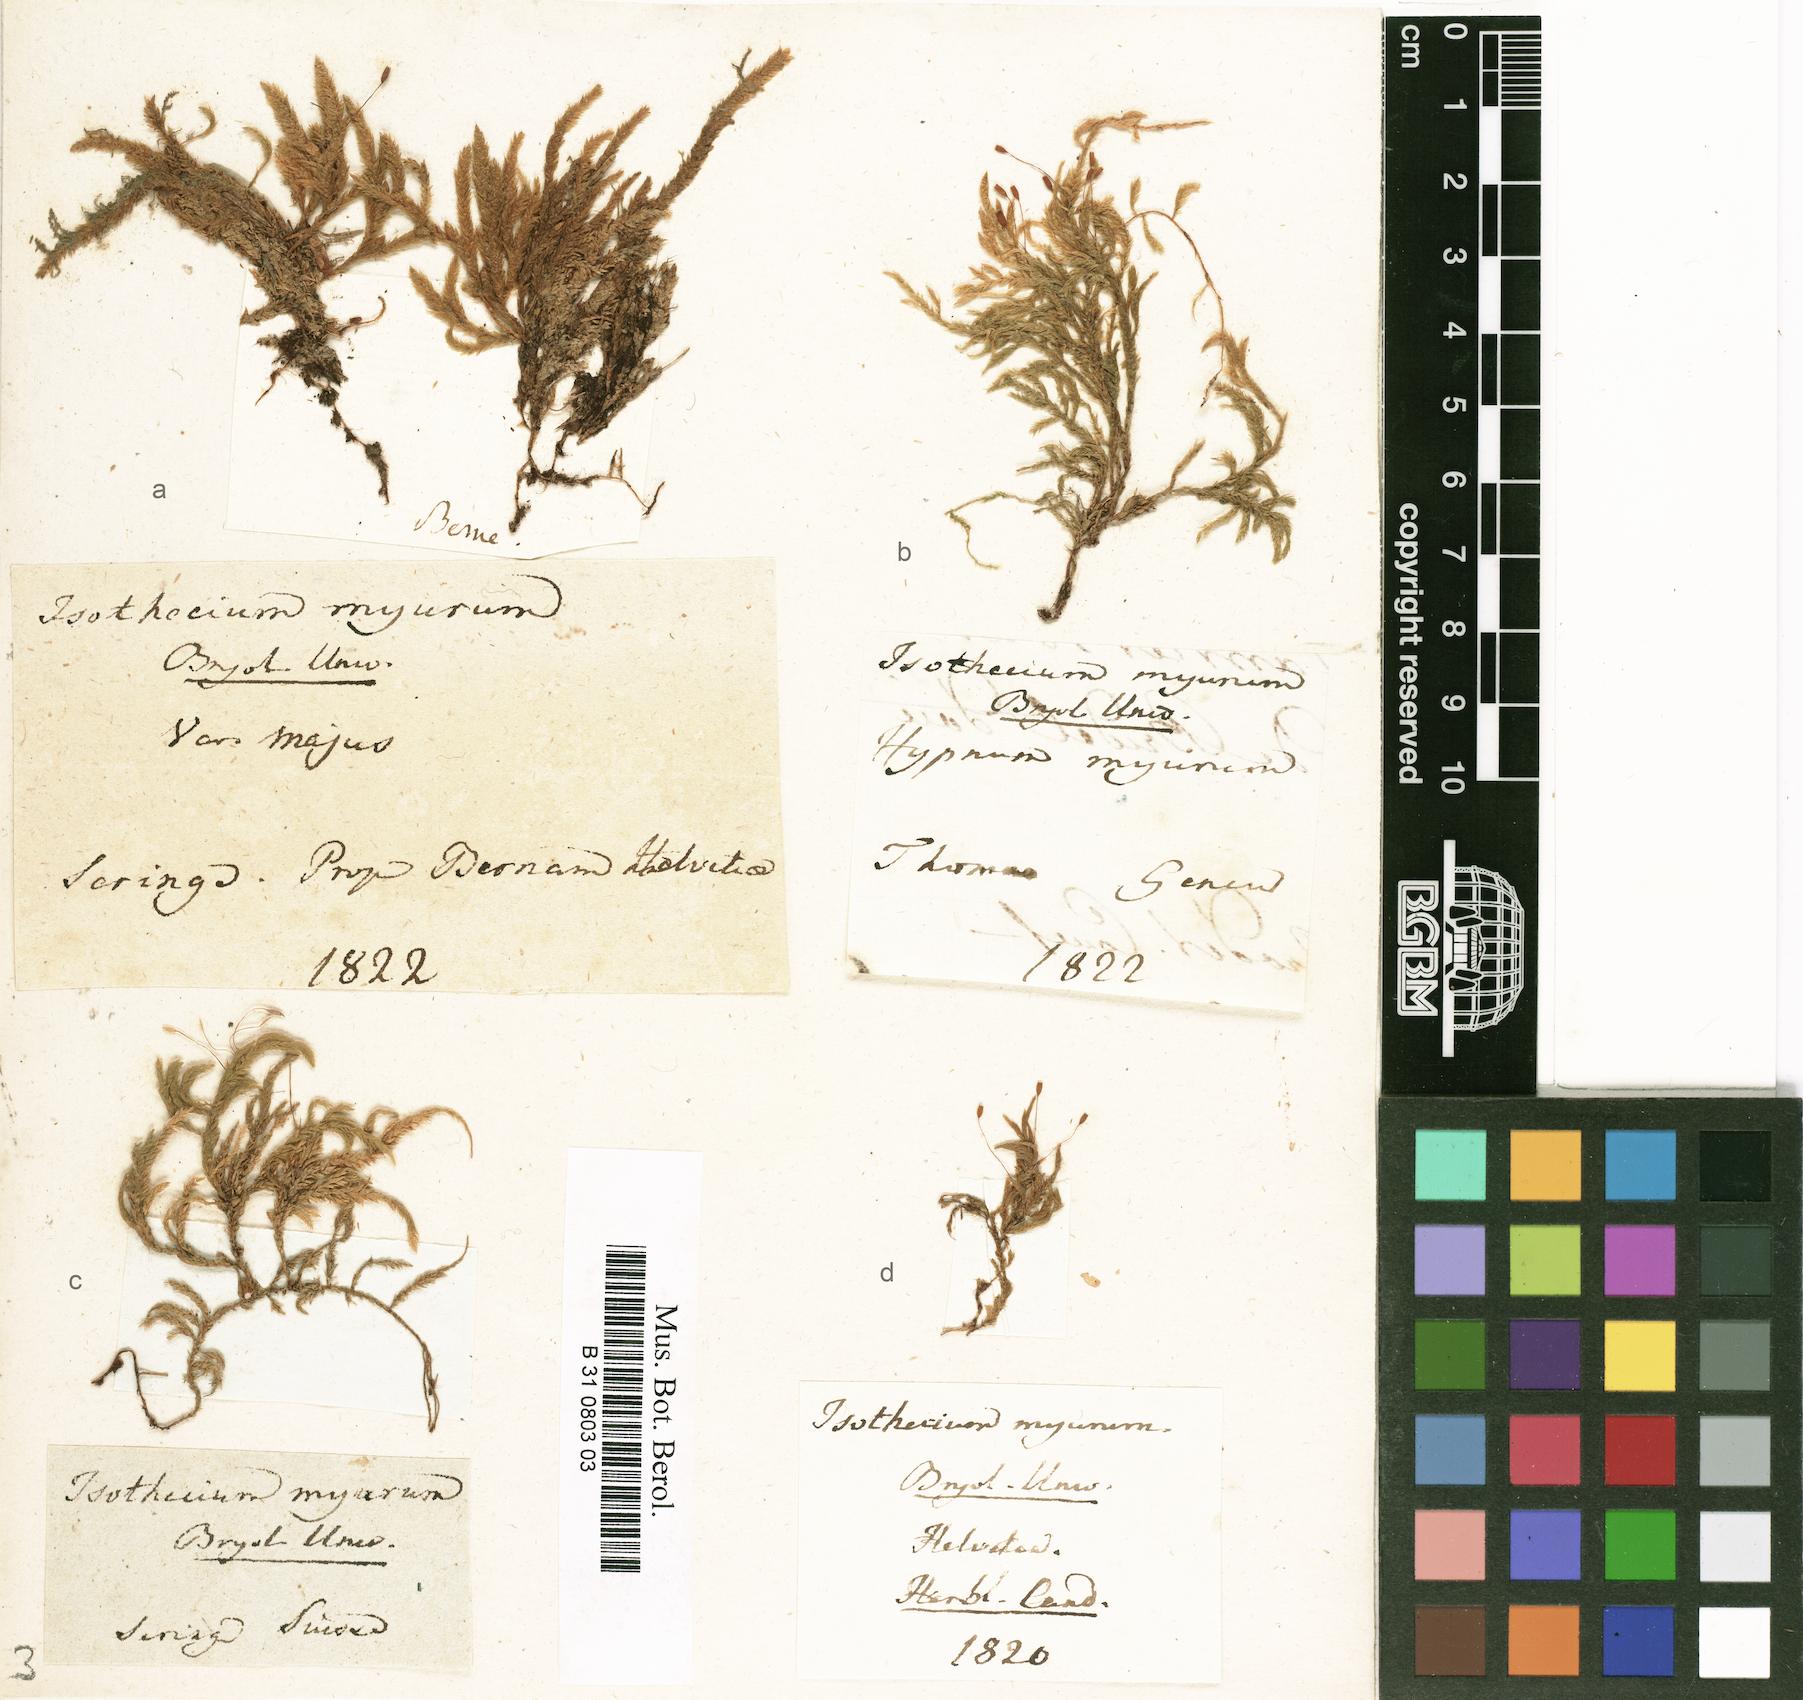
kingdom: Plantae
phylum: Bryophyta
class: Bryopsida
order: Hypnales
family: Lembophyllaceae
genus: Isothecium
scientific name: Isothecium alopecuroides
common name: Larger mouse-tail moss
